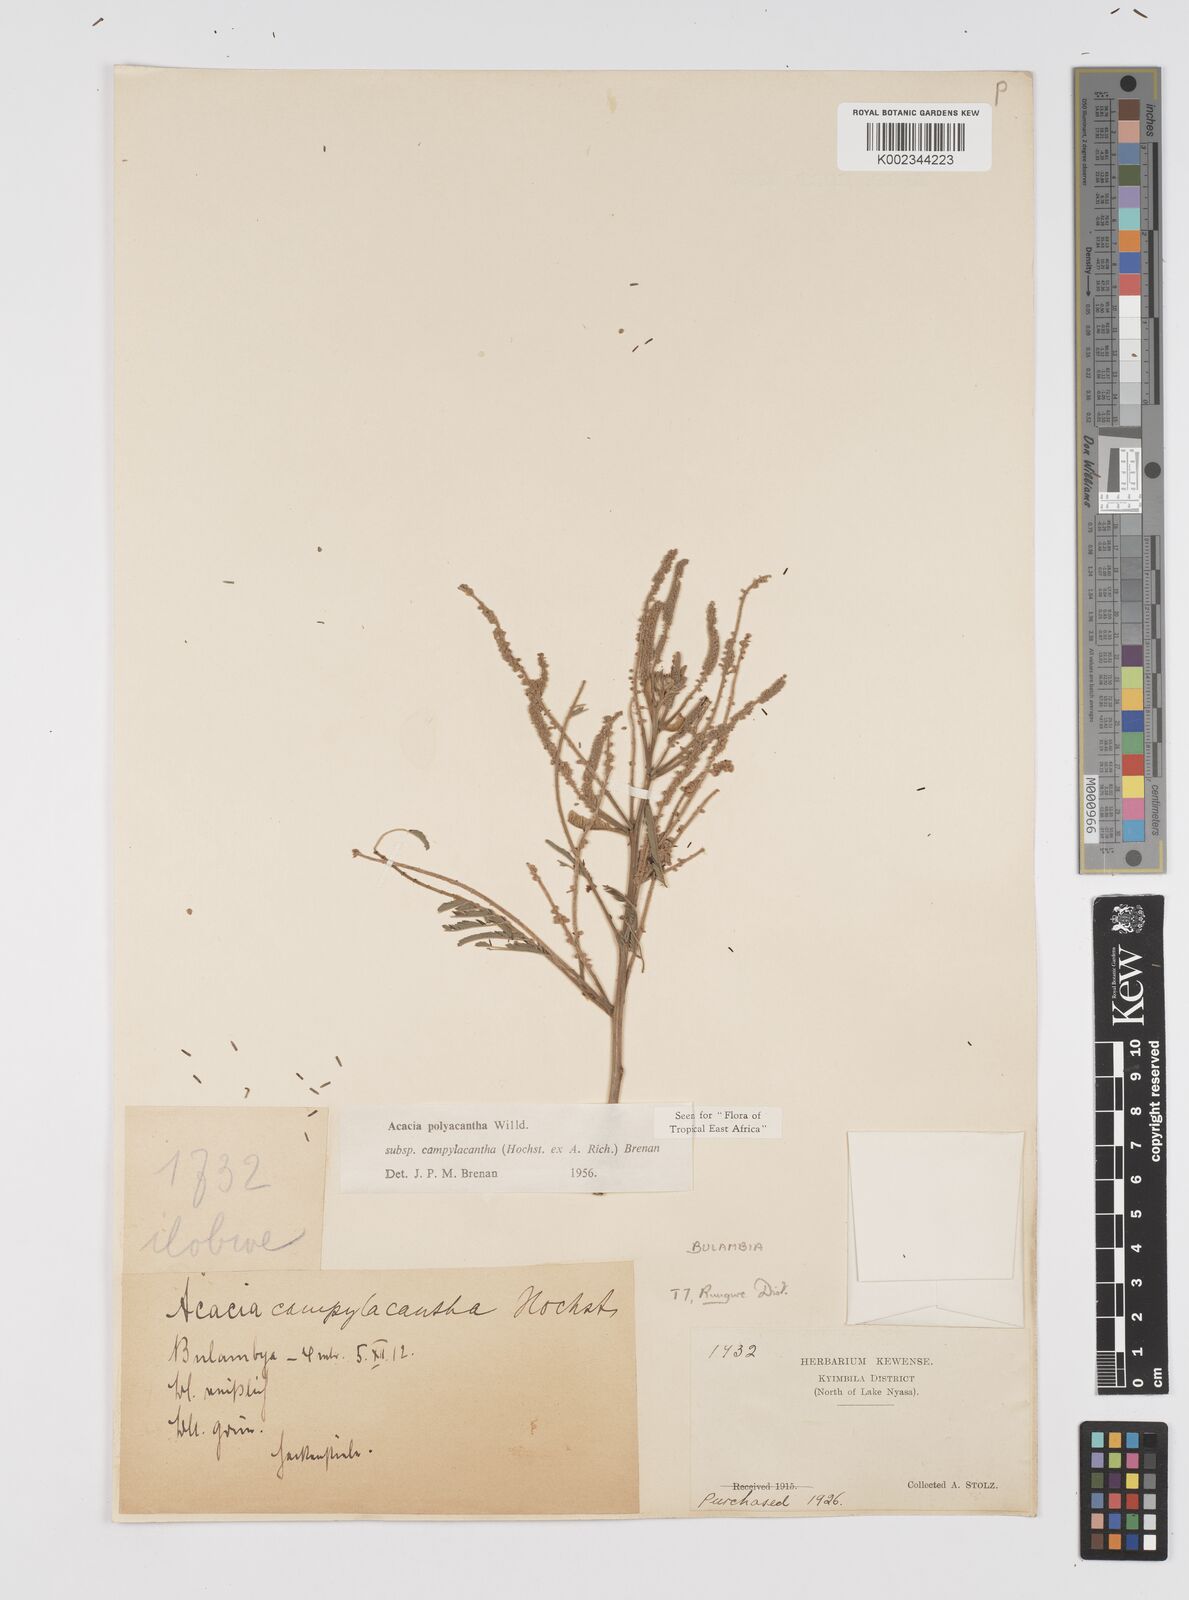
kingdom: Plantae
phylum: Tracheophyta
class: Magnoliopsida
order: Fabales
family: Fabaceae
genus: Senegalia
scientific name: Senegalia polyacantha
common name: Whitethorn
